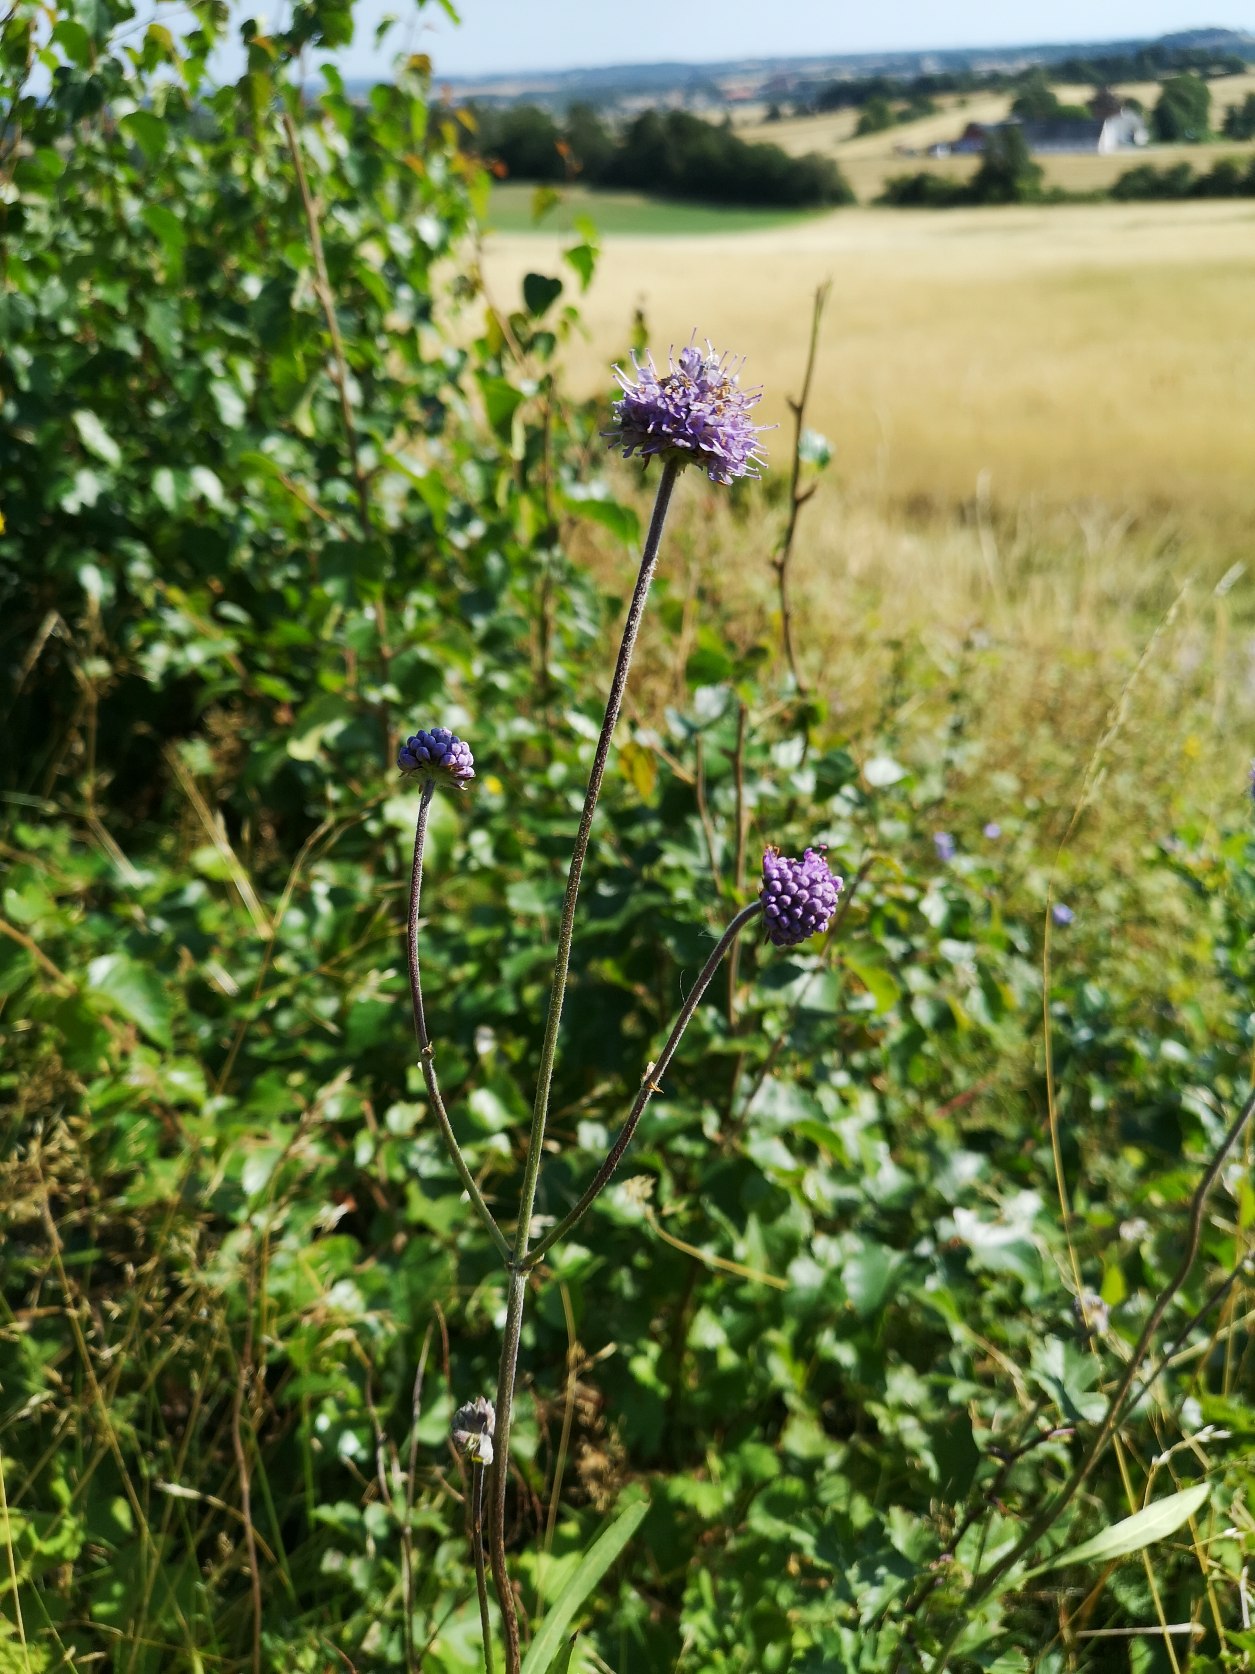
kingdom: Plantae
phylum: Tracheophyta
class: Magnoliopsida
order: Dipsacales
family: Caprifoliaceae
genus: Succisa
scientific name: Succisa pratensis
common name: Djævelsbid
